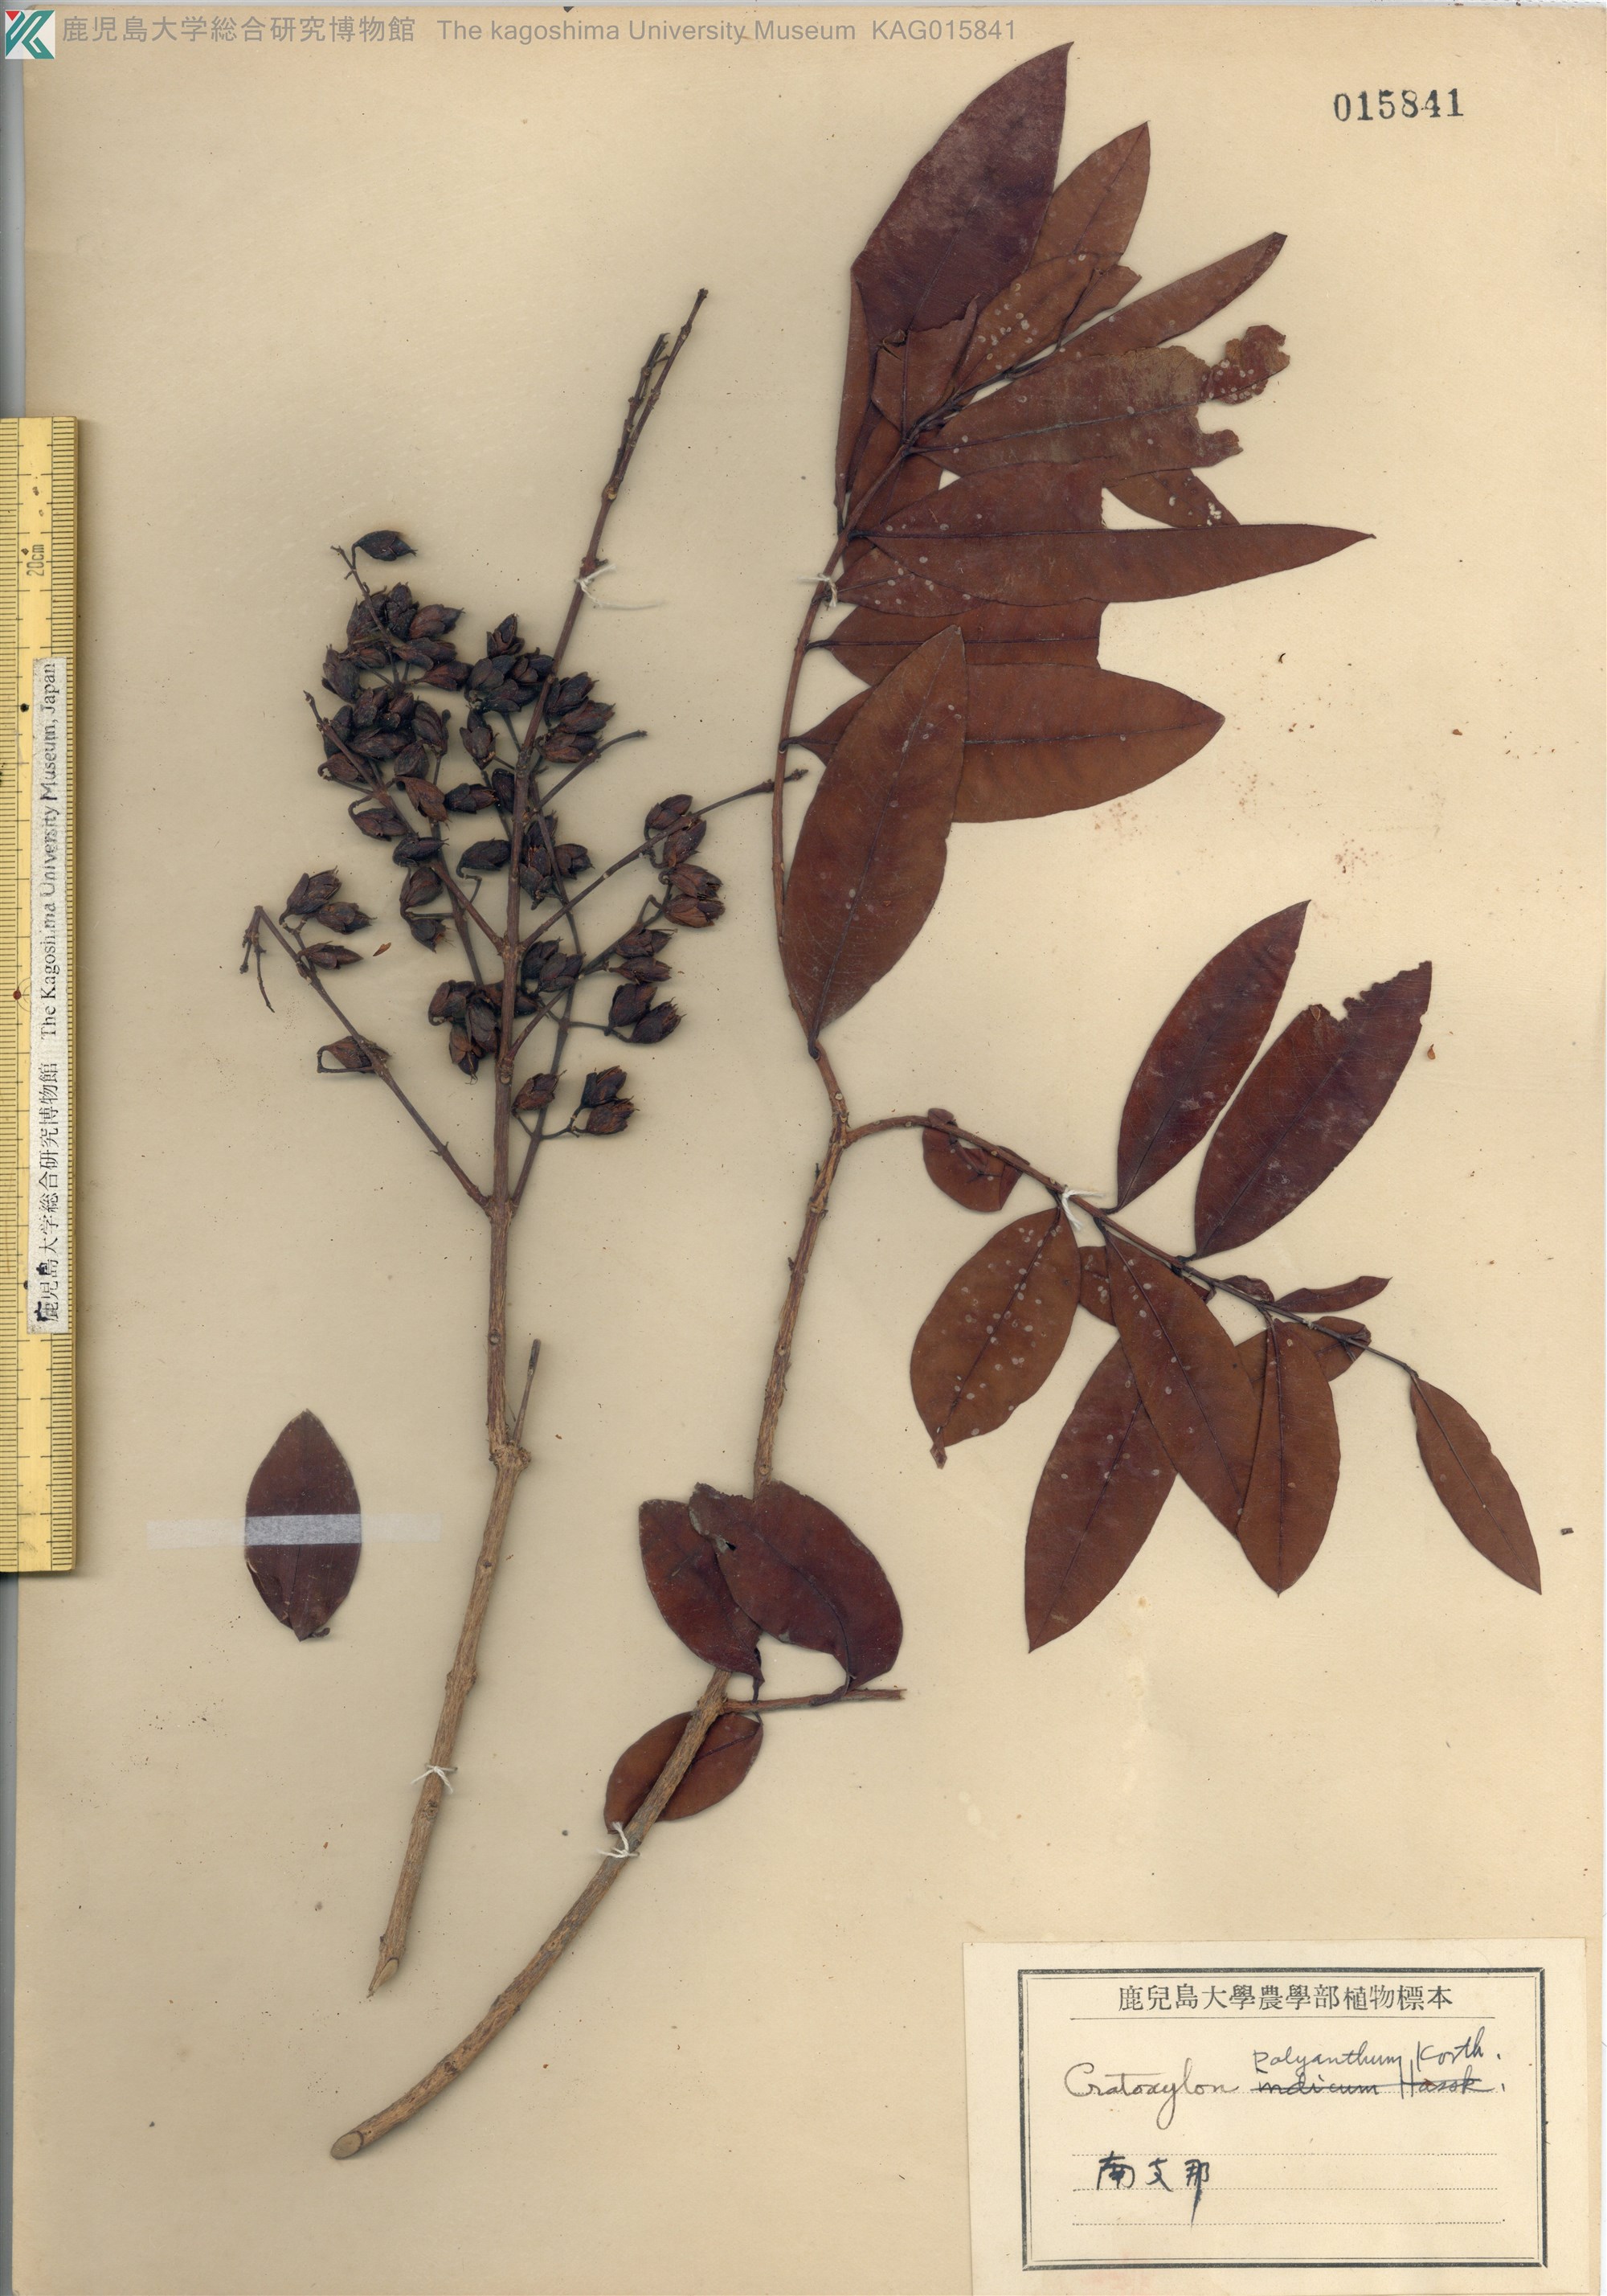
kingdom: Plantae
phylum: Tracheophyta
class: Magnoliopsida
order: Malpighiales
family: Hypericaceae
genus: Cratoxylum
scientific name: Cratoxylum cochinchinense
